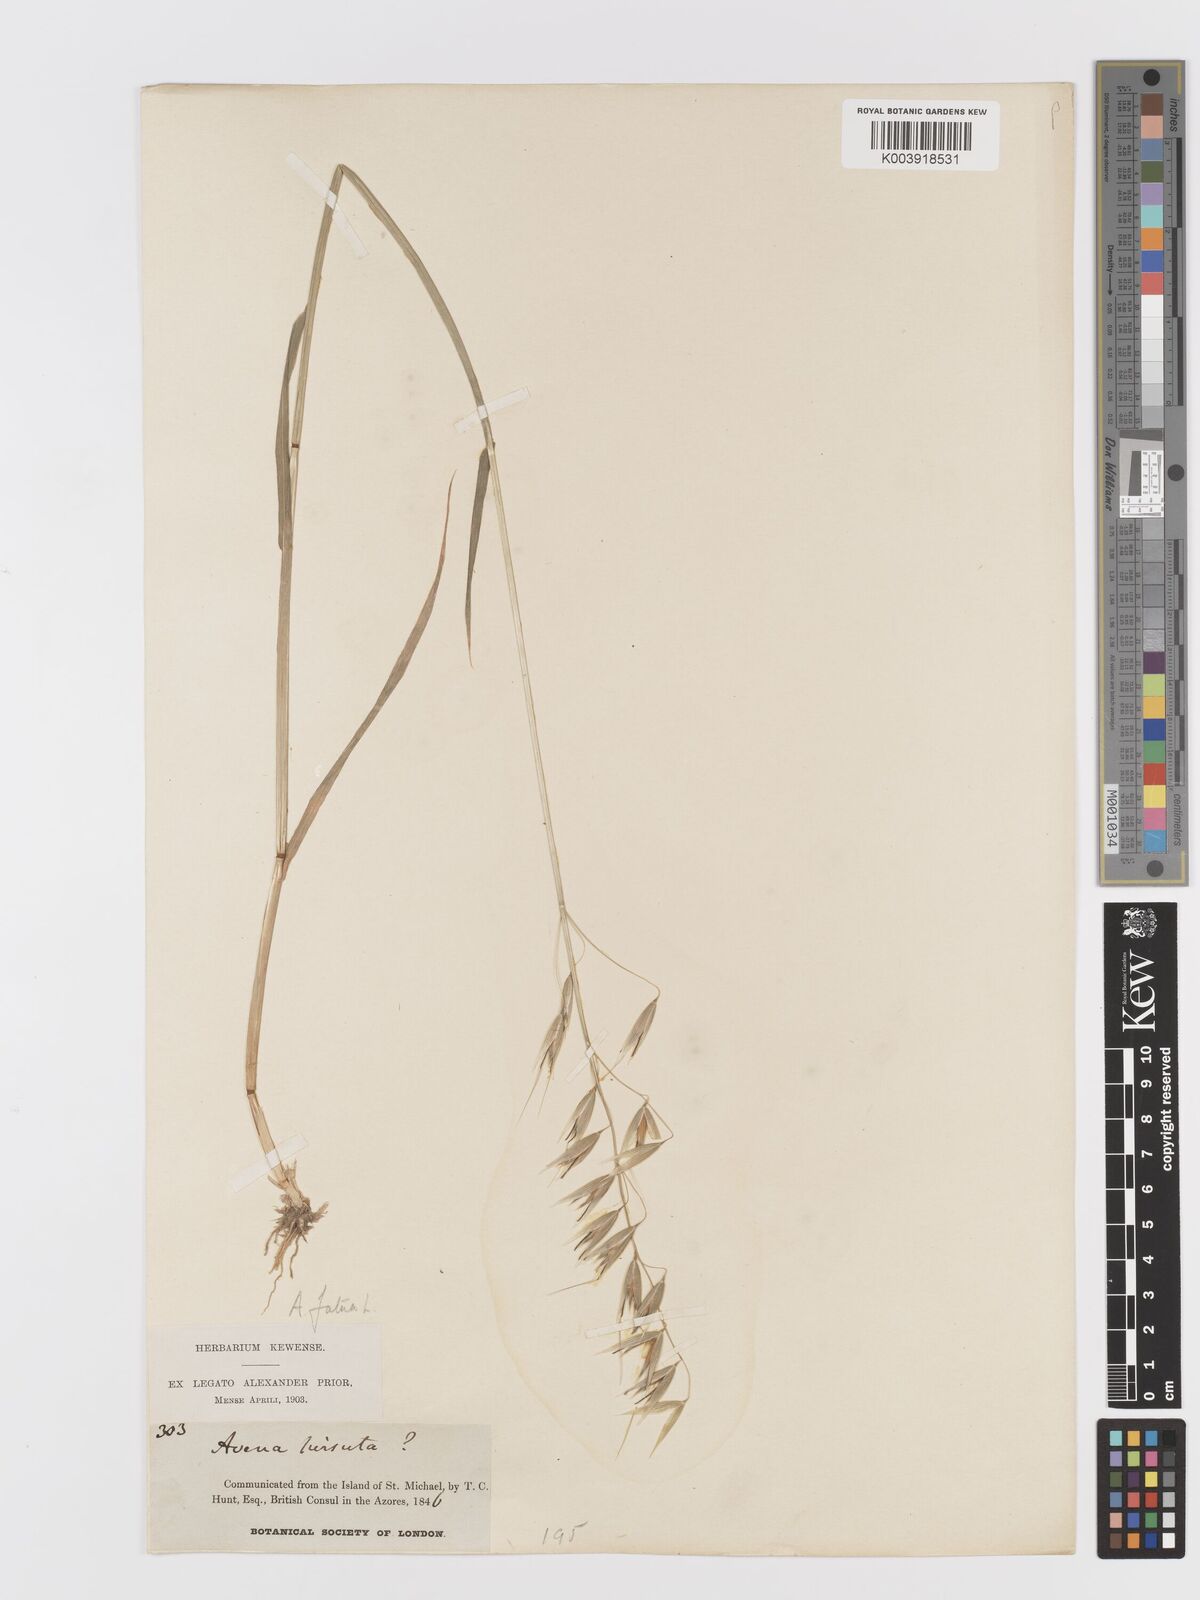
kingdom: Plantae
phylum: Tracheophyta
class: Liliopsida
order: Poales
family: Poaceae
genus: Avena
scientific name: Avena fatua
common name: Wild oat
